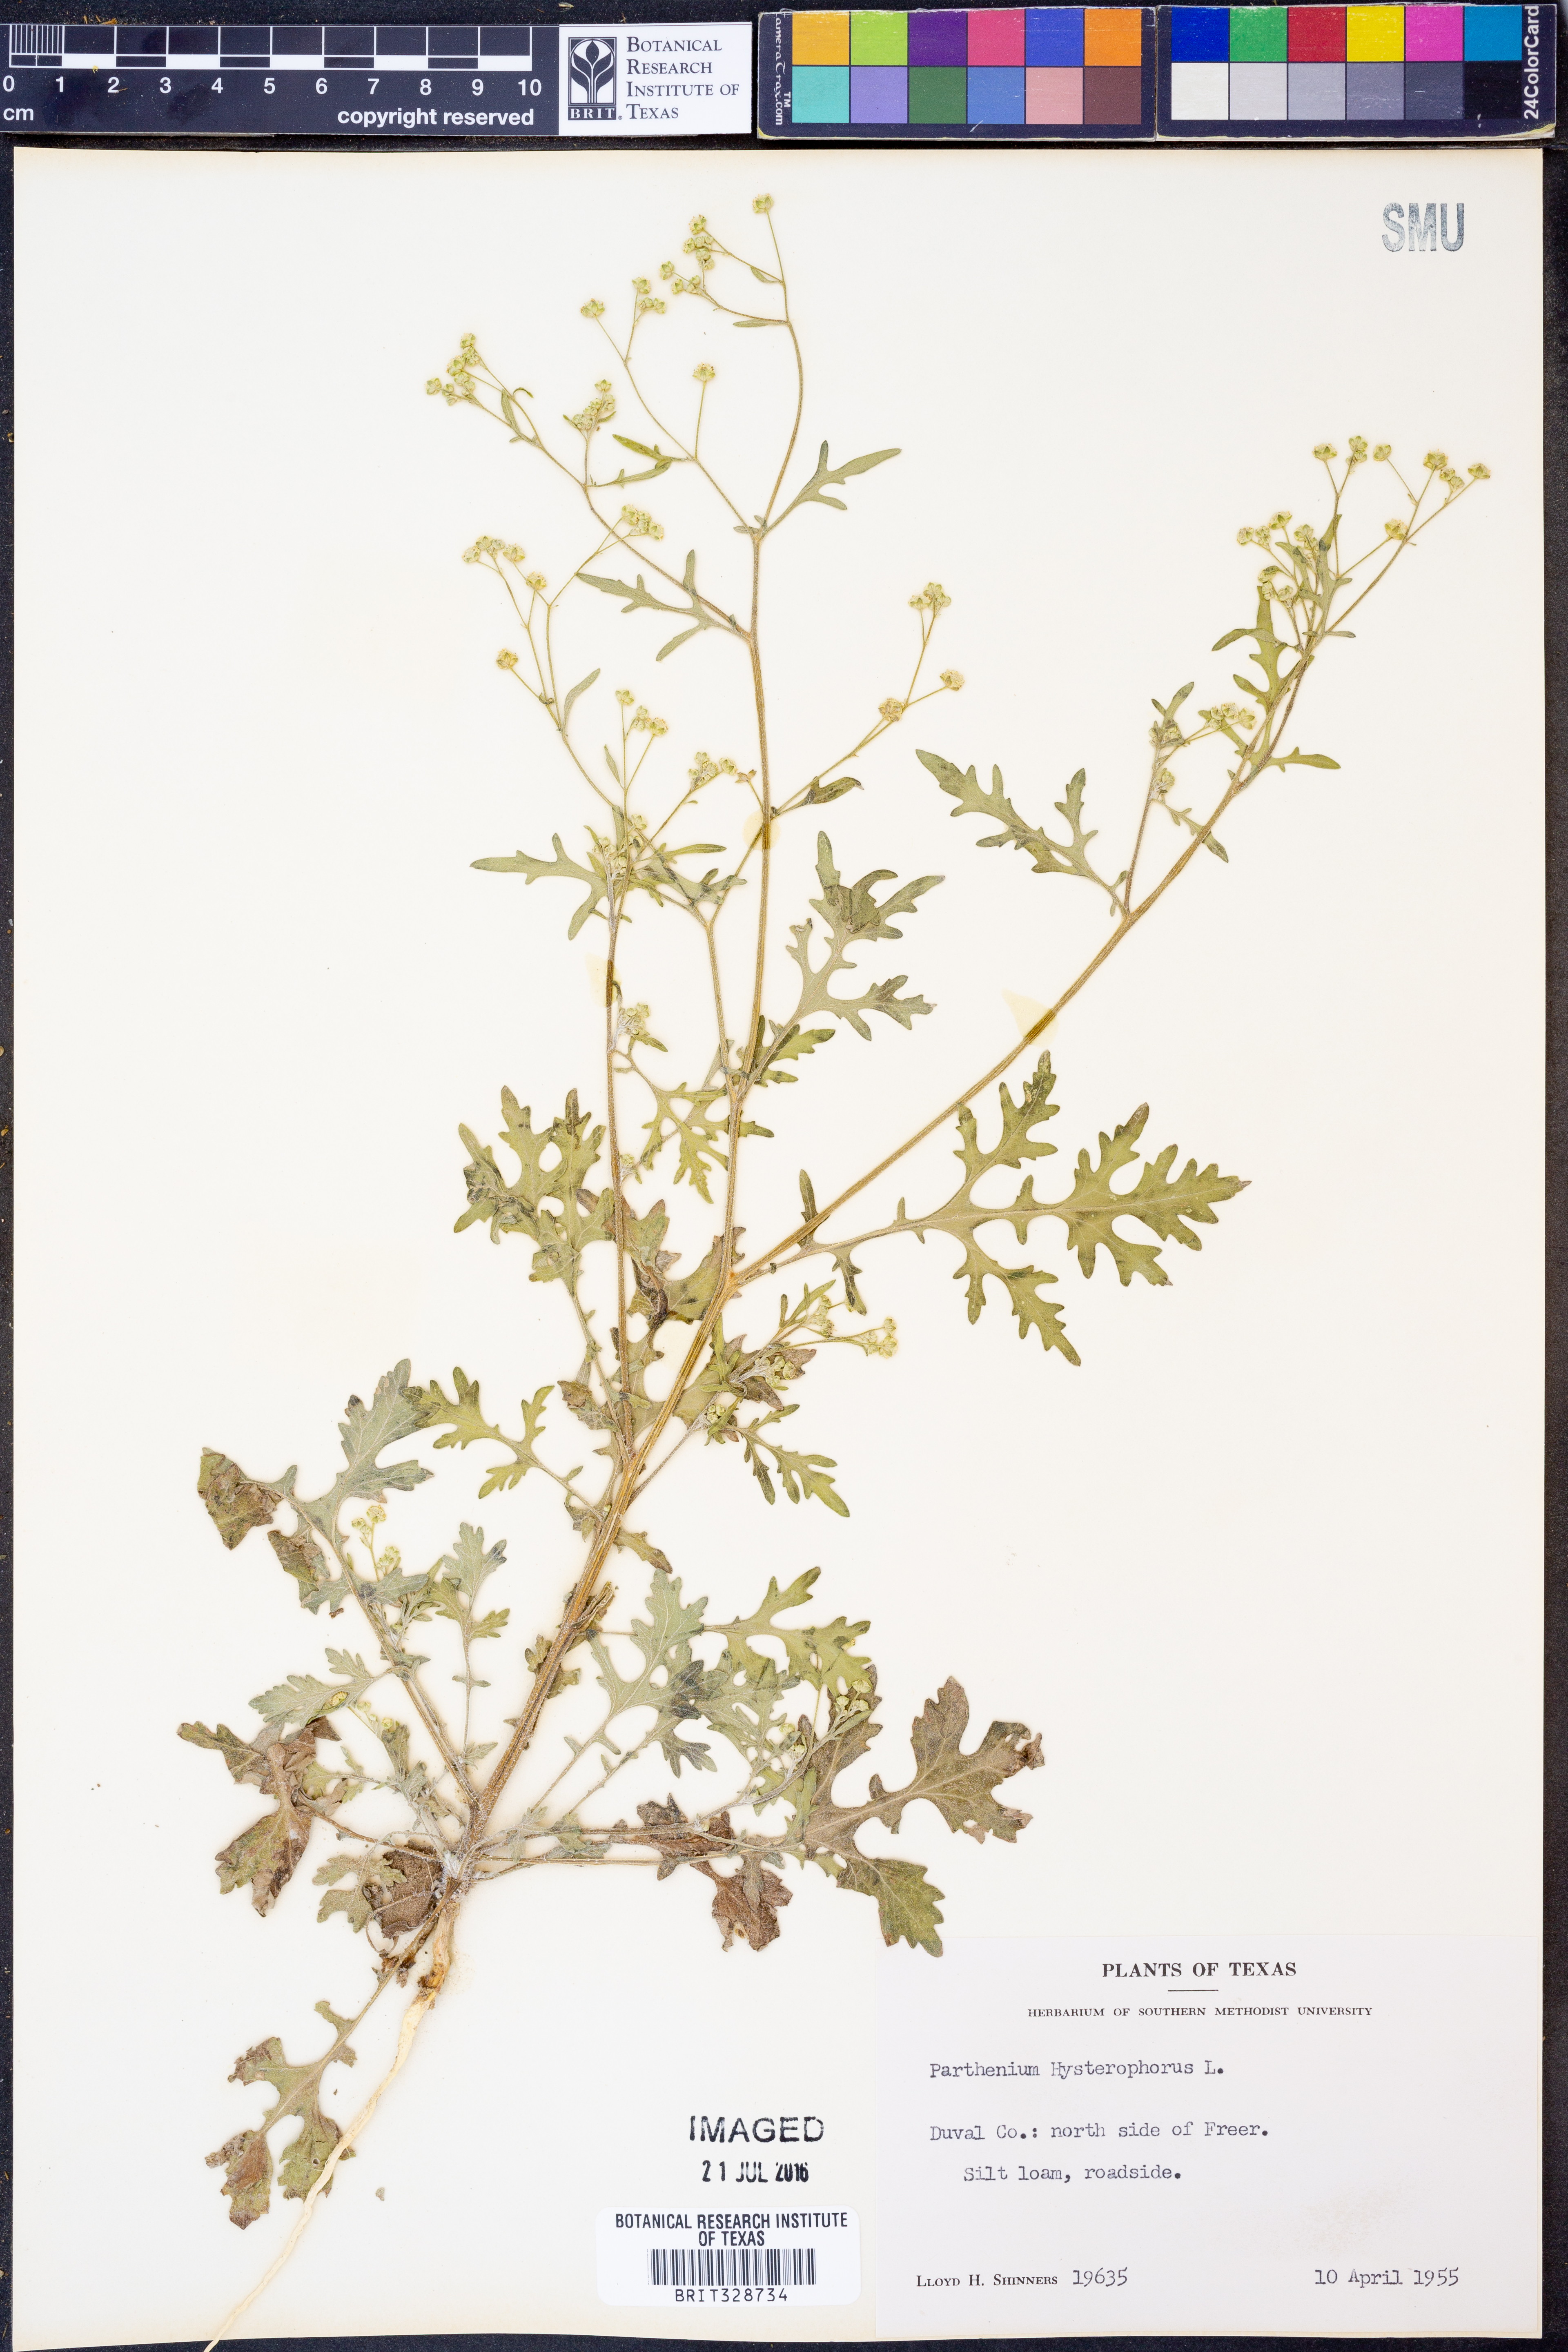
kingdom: Plantae
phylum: Tracheophyta
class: Magnoliopsida
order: Asterales
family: Asteraceae
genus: Parthenium
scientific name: Parthenium hysterophorus
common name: Santa maria feverfew
